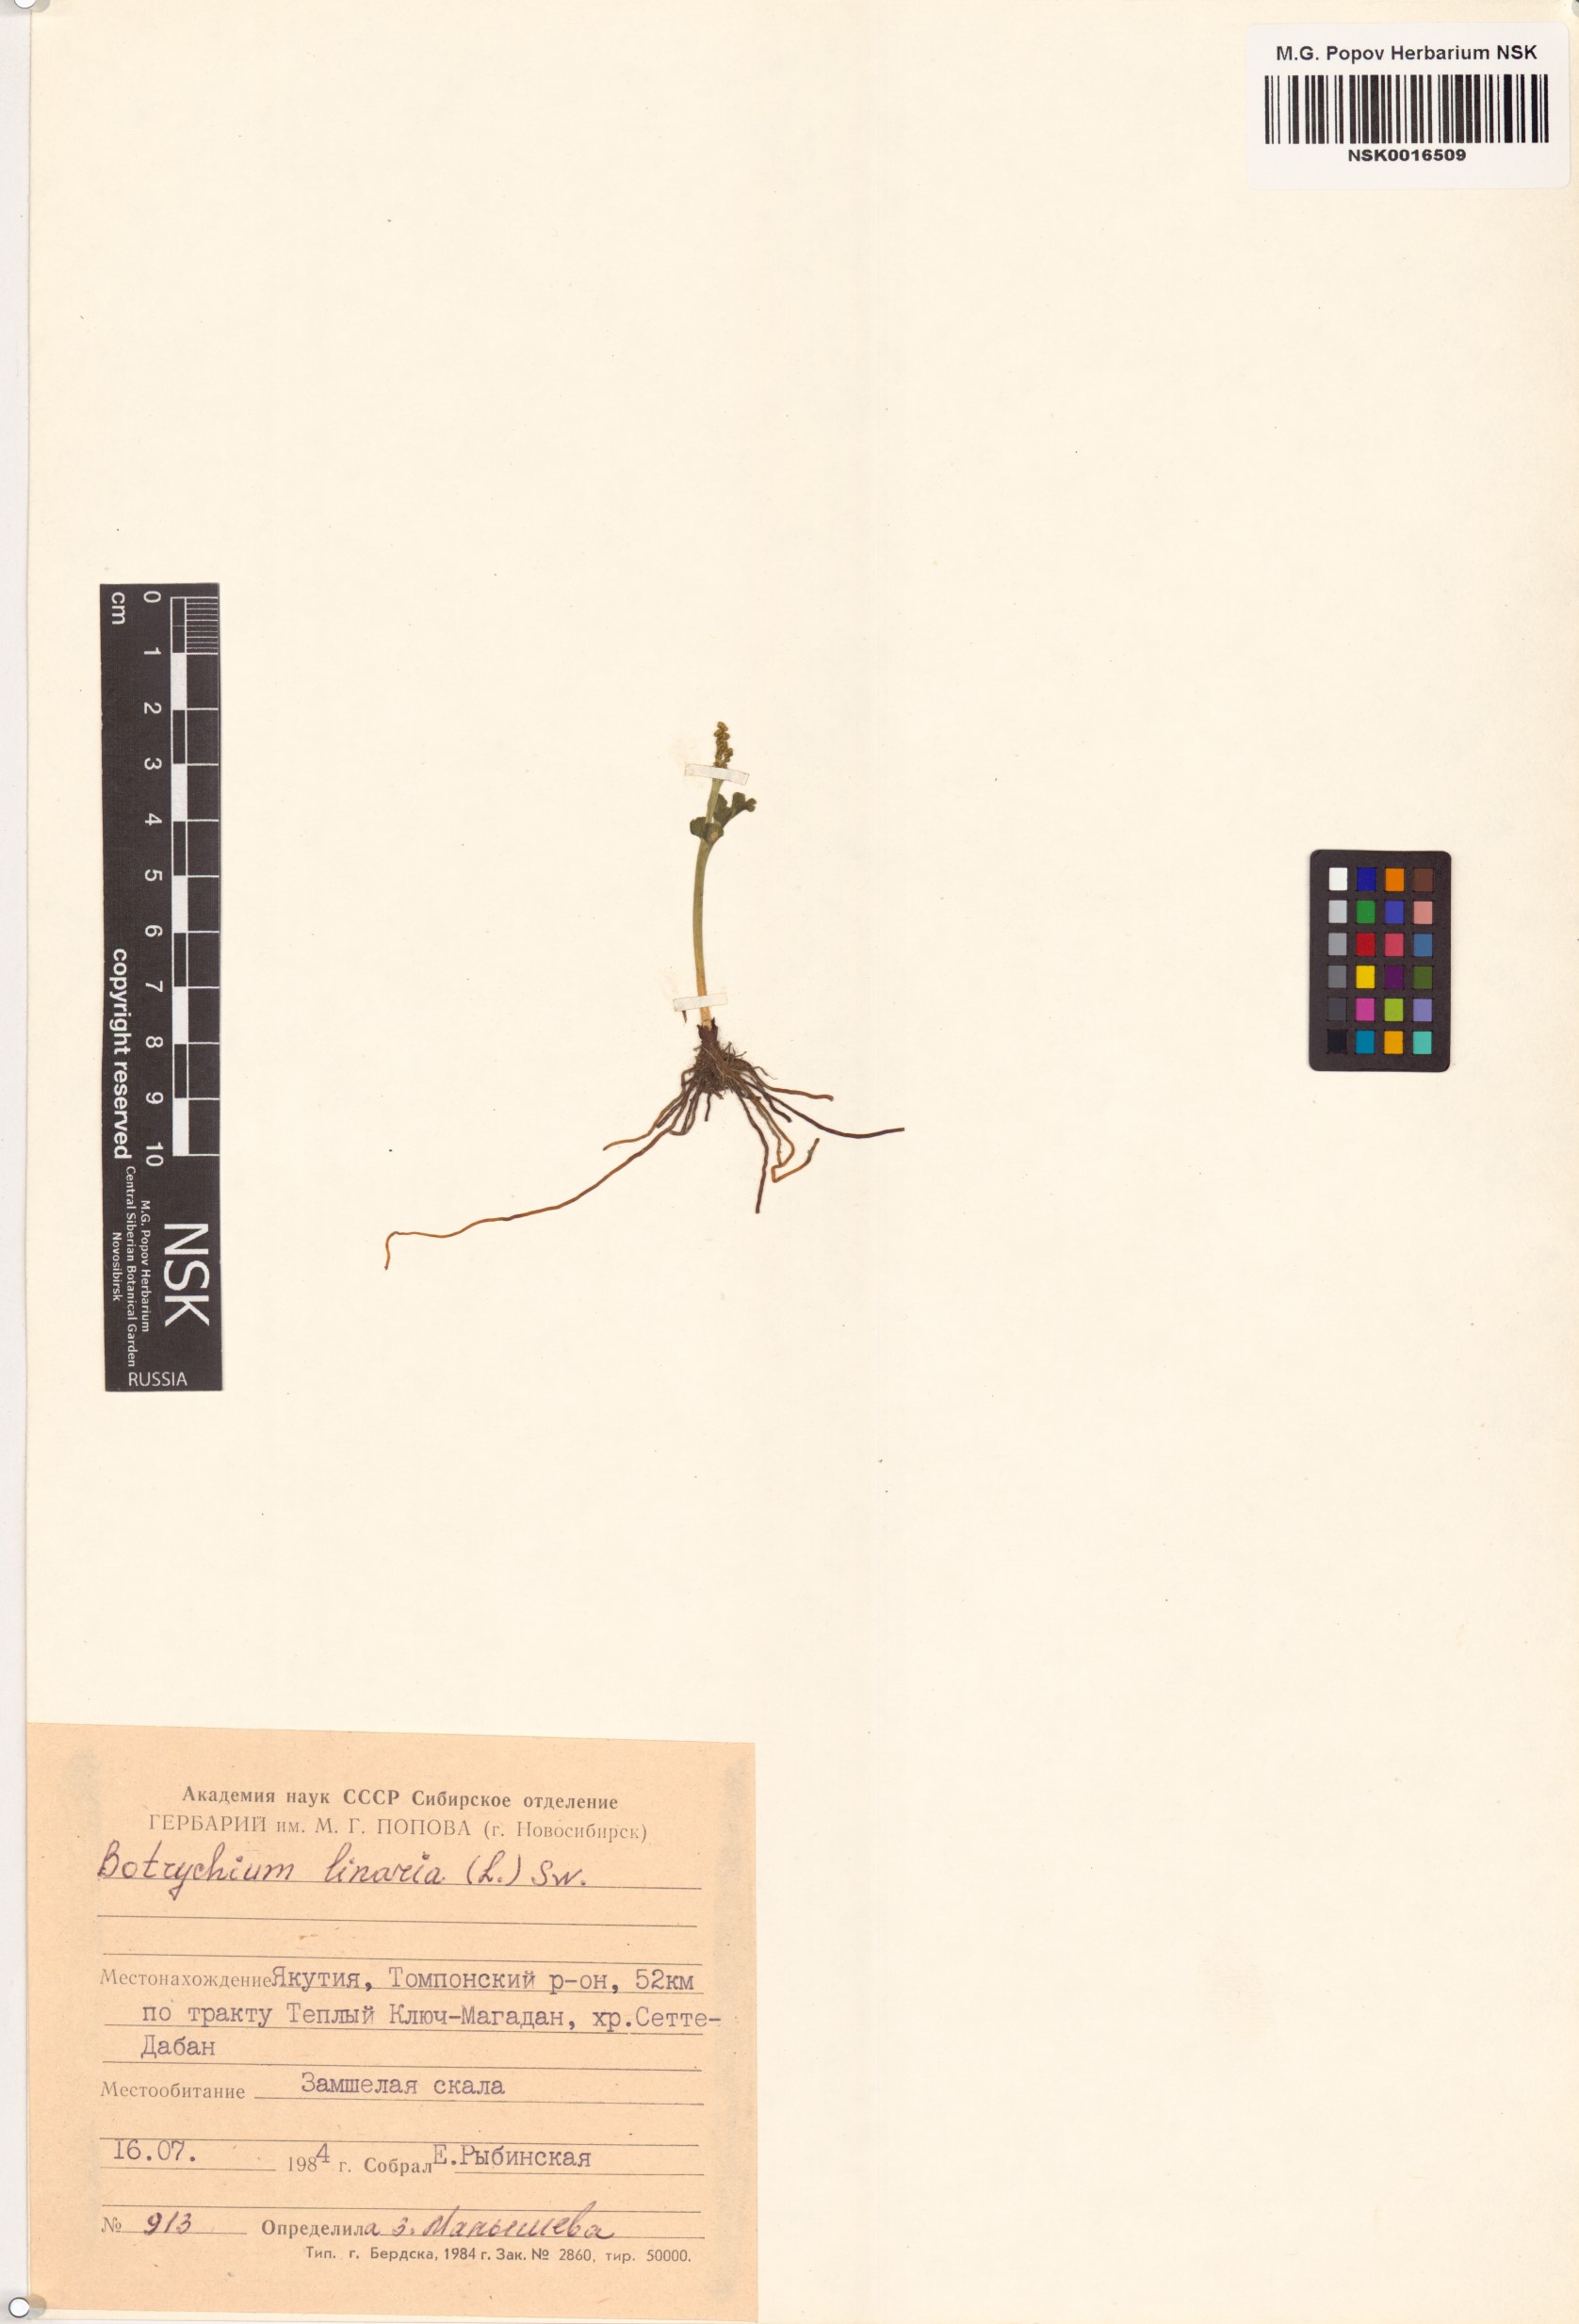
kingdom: Plantae
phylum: Tracheophyta
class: Polypodiopsida
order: Ophioglossales
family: Ophioglossaceae
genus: Botrychium
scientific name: Botrychium lunaria
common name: Moonwort
